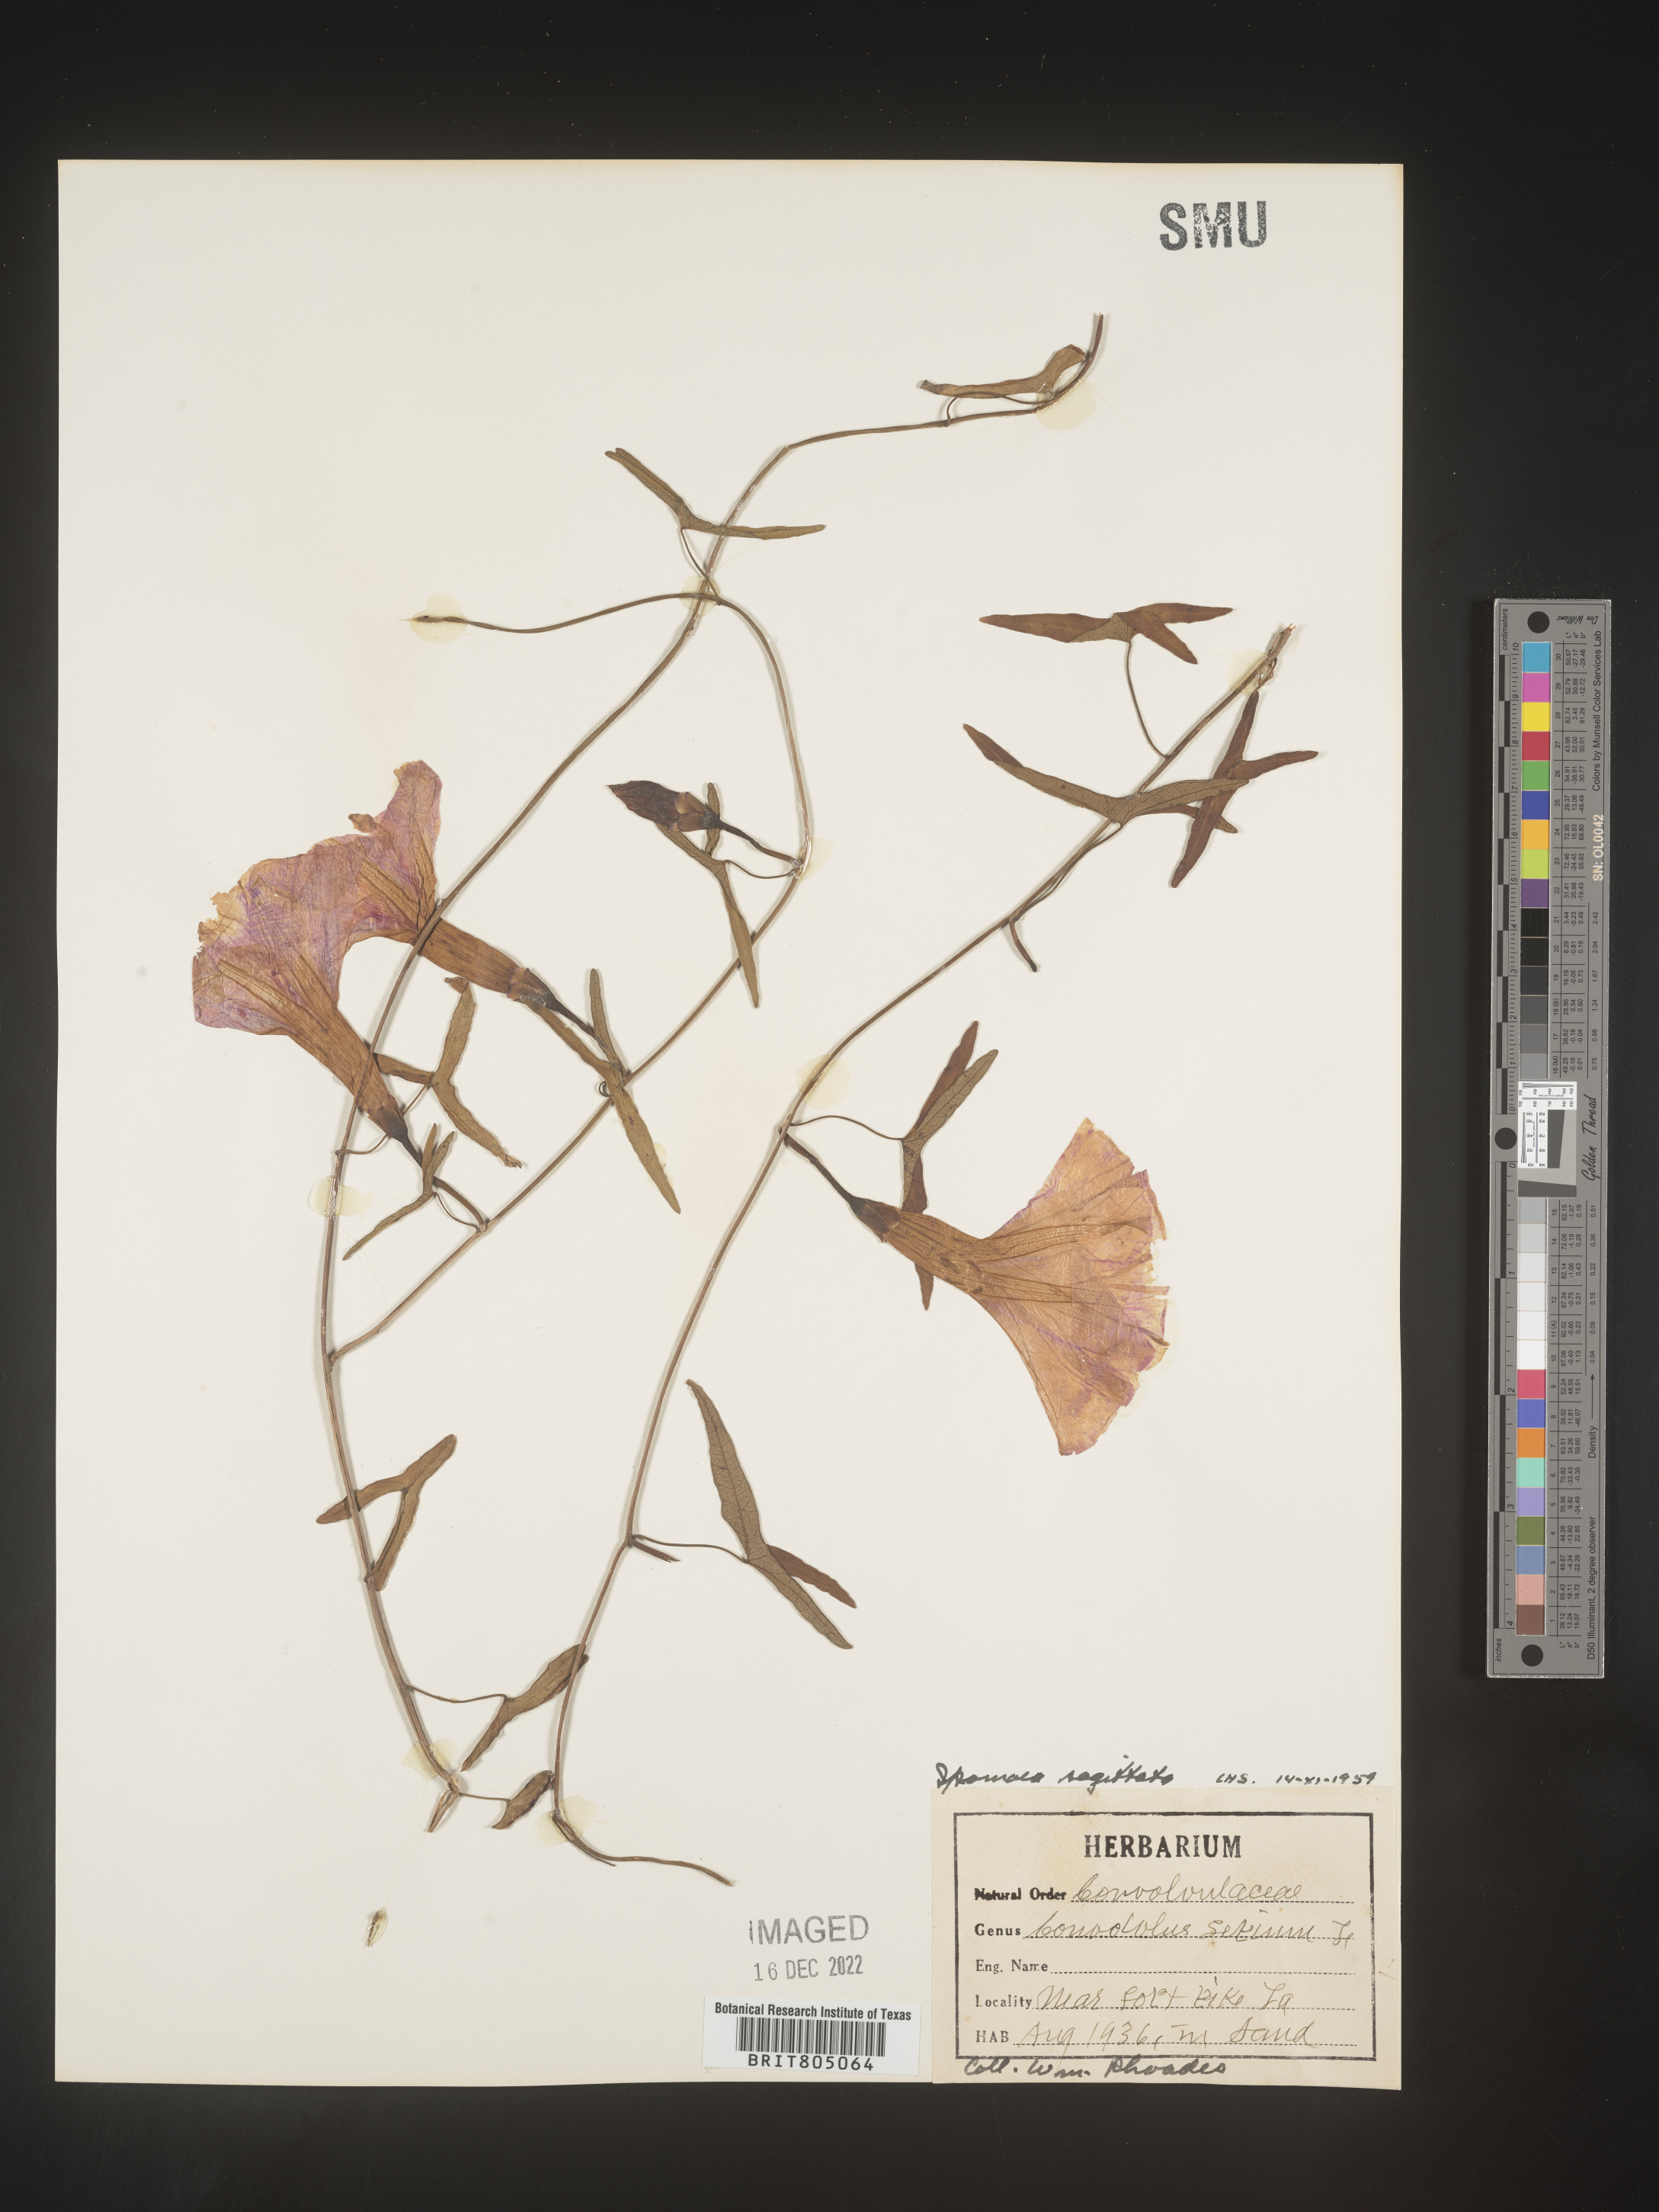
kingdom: Plantae
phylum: Tracheophyta
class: Magnoliopsida
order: Solanales
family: Convolvulaceae
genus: Ipomoea
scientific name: Ipomoea sinensis
